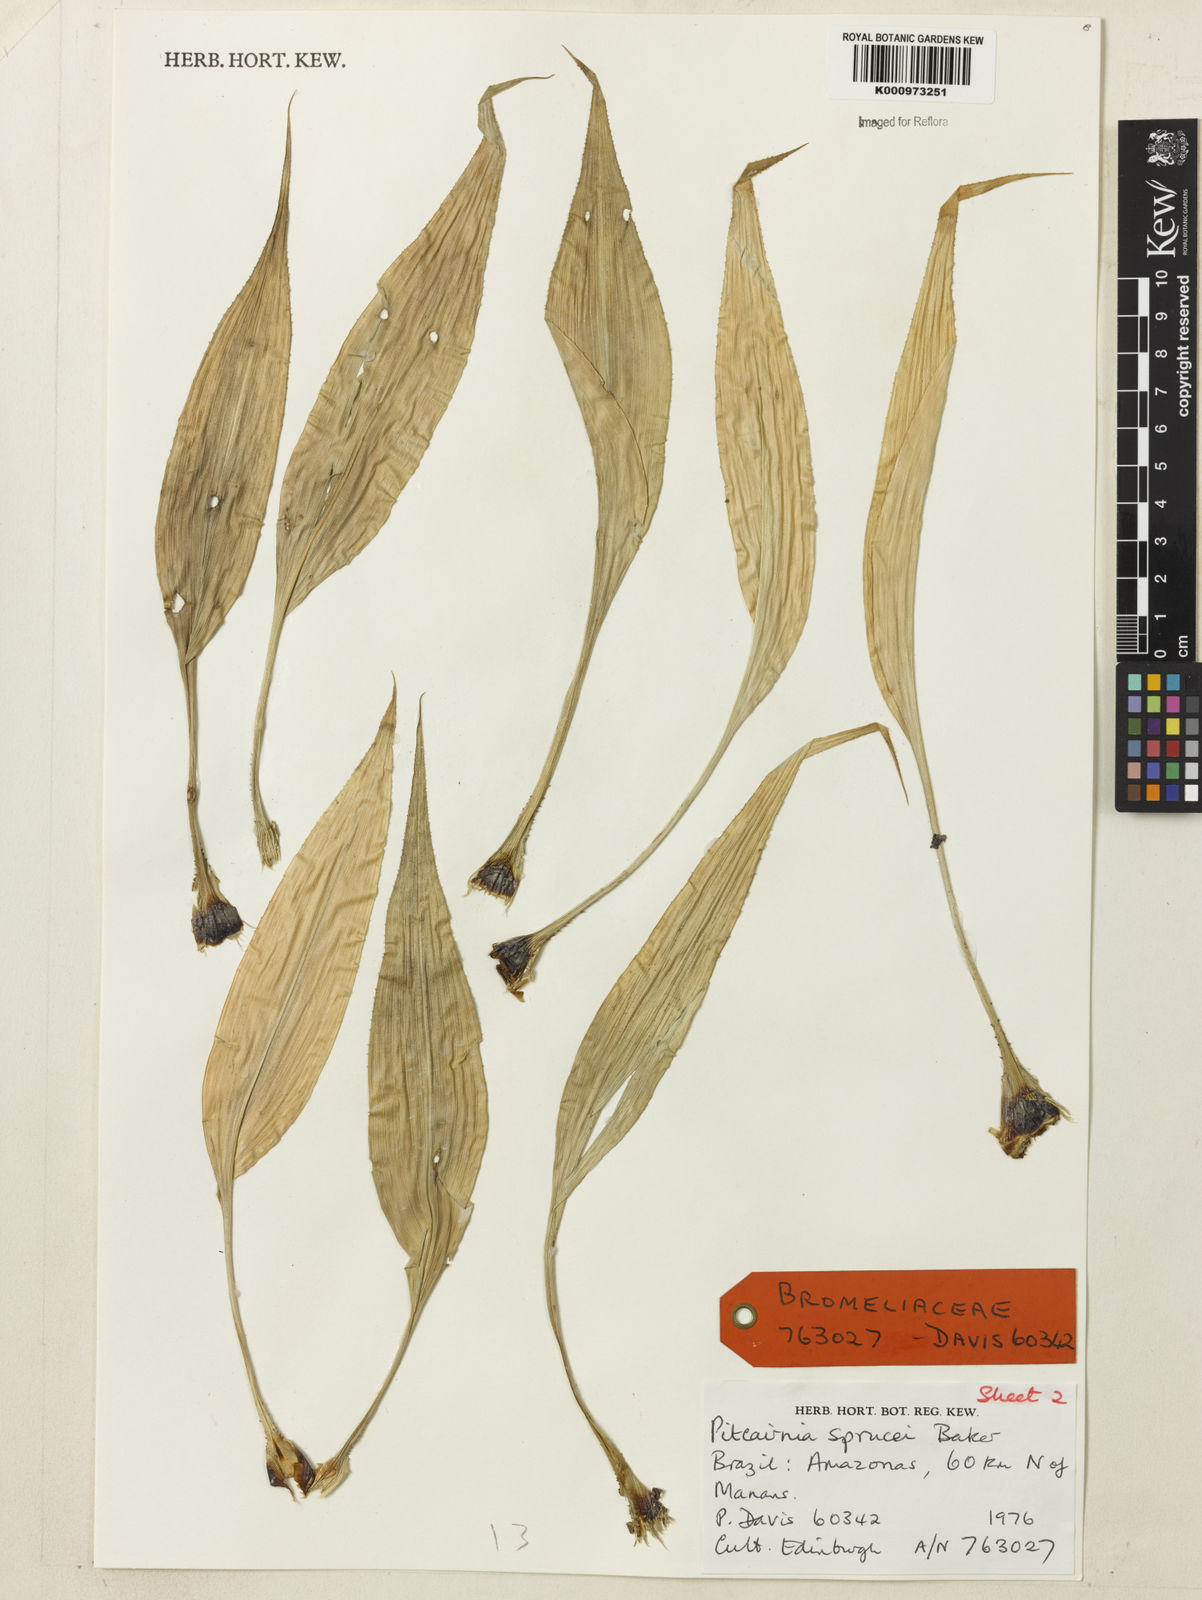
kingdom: Plantae
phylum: Tracheophyta
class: Liliopsida
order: Poales
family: Bromeliaceae
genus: Pitcairnia
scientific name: Pitcairnia sprucei
